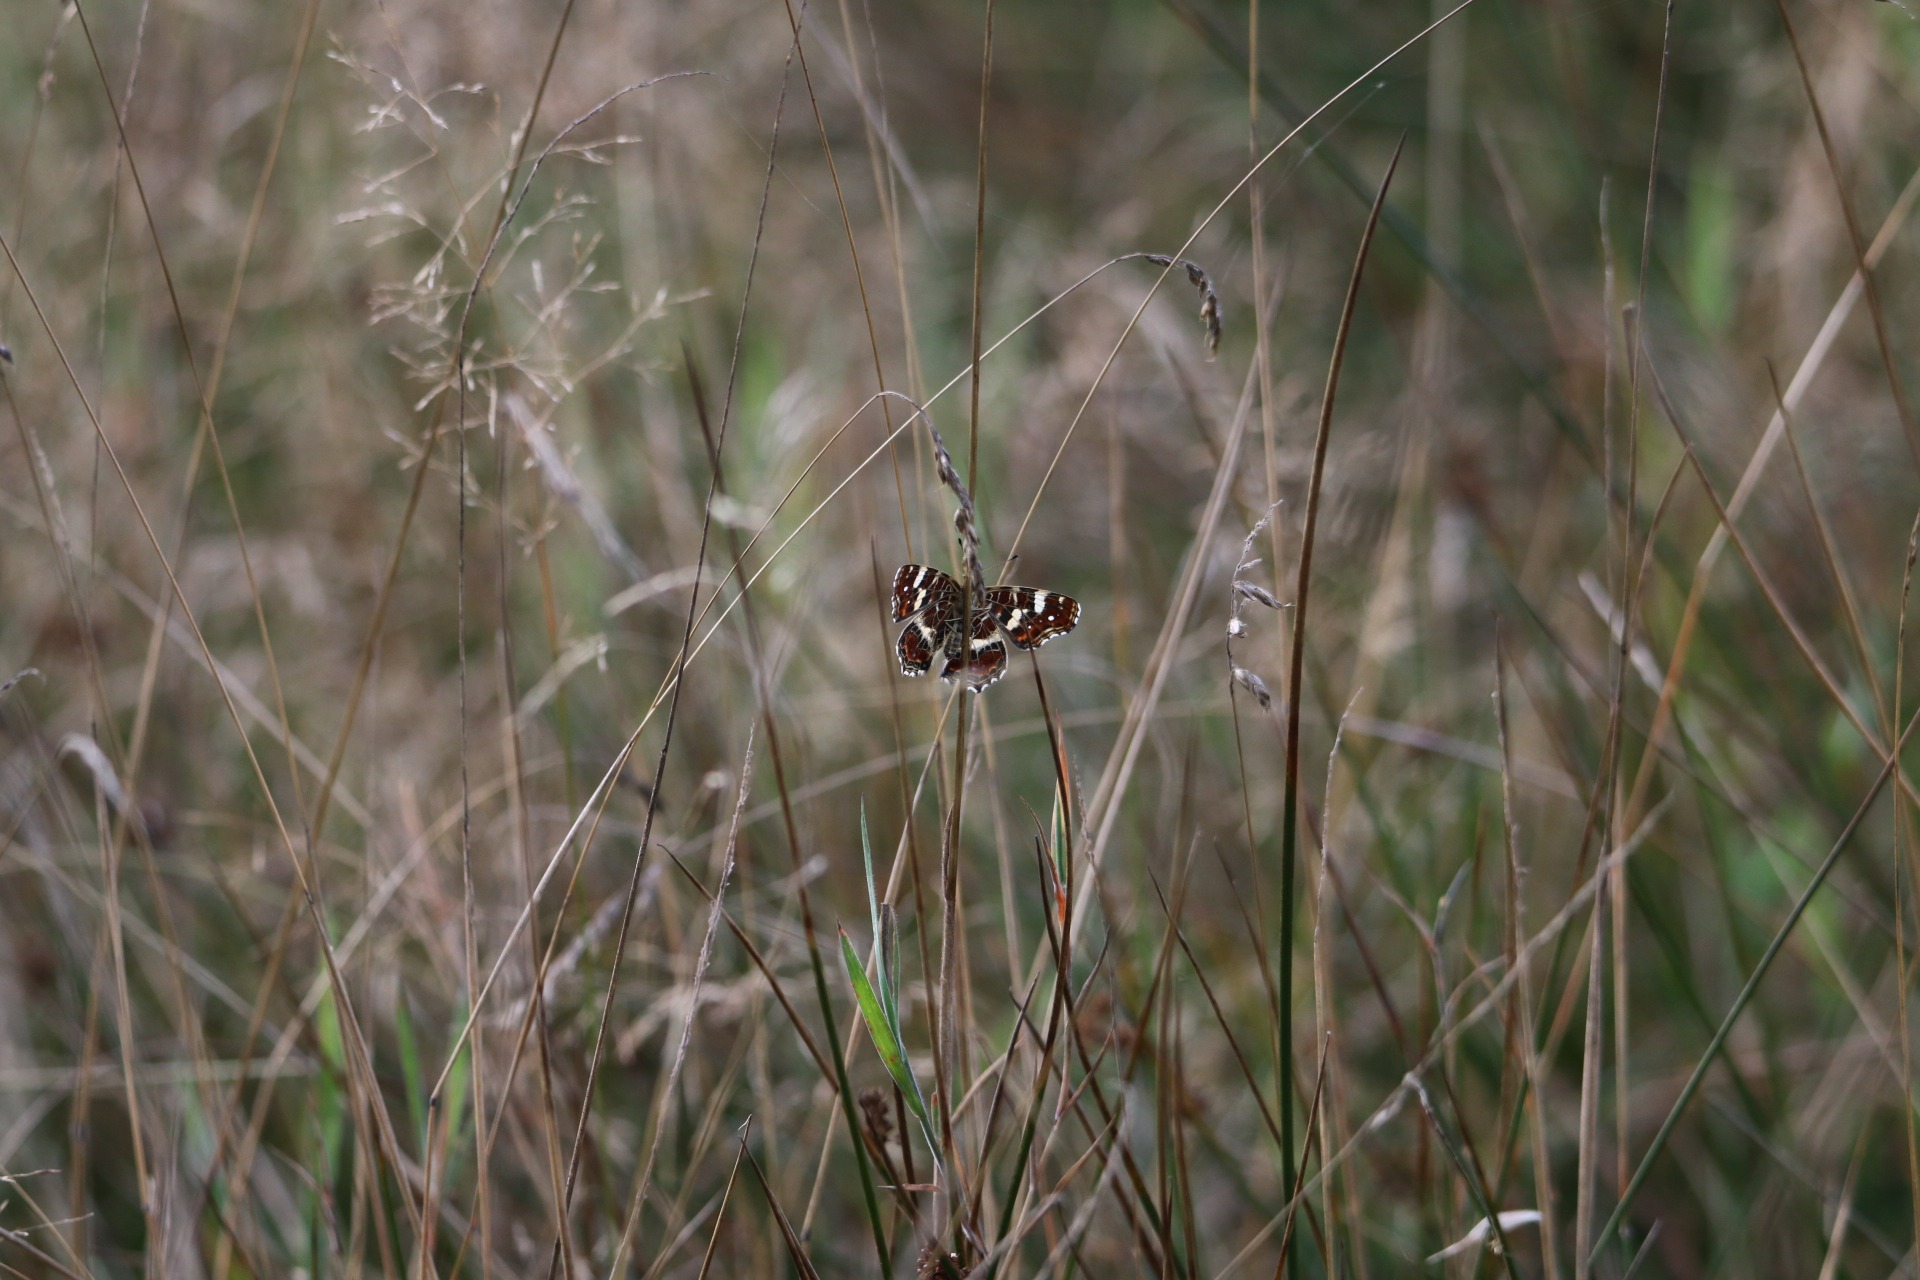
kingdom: Animalia
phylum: Arthropoda
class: Insecta
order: Lepidoptera
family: Nymphalidae
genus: Araschnia
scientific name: Araschnia levana
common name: Nældesommerfugl
